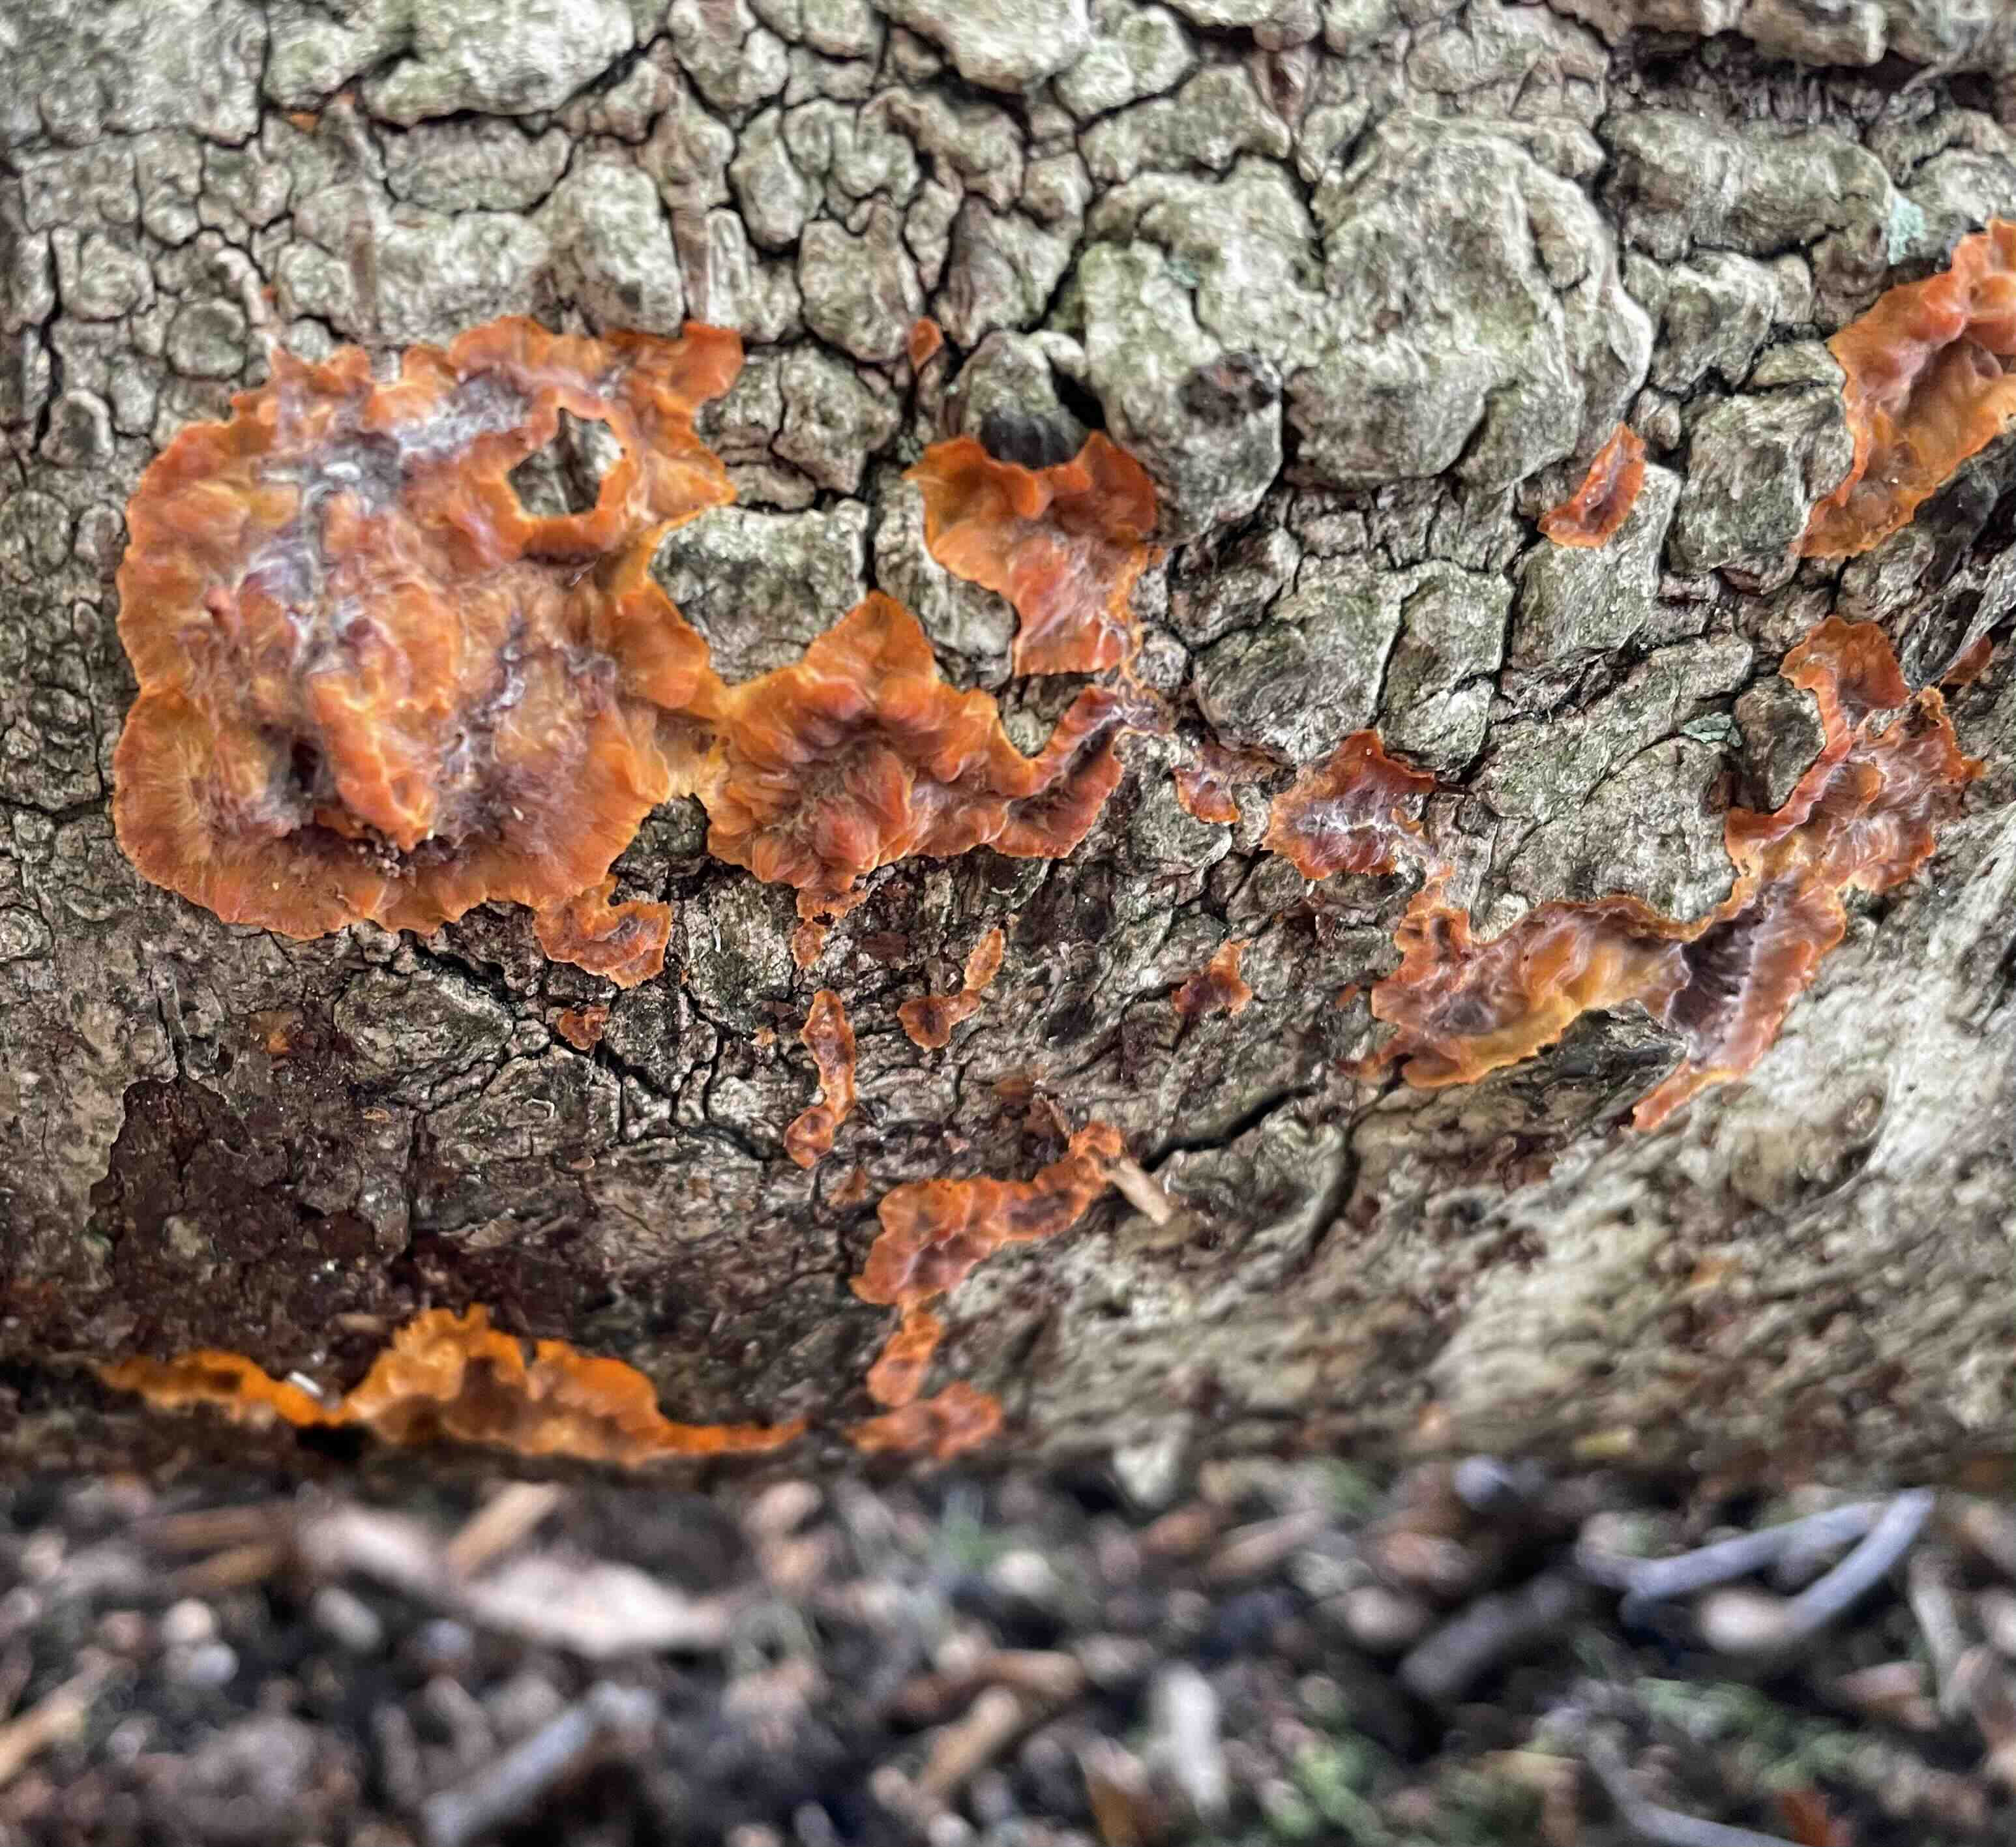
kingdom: Fungi
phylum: Basidiomycota
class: Agaricomycetes
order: Polyporales
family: Meruliaceae
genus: Phlebia
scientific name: Phlebia radiata
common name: stråle-åresvamp
